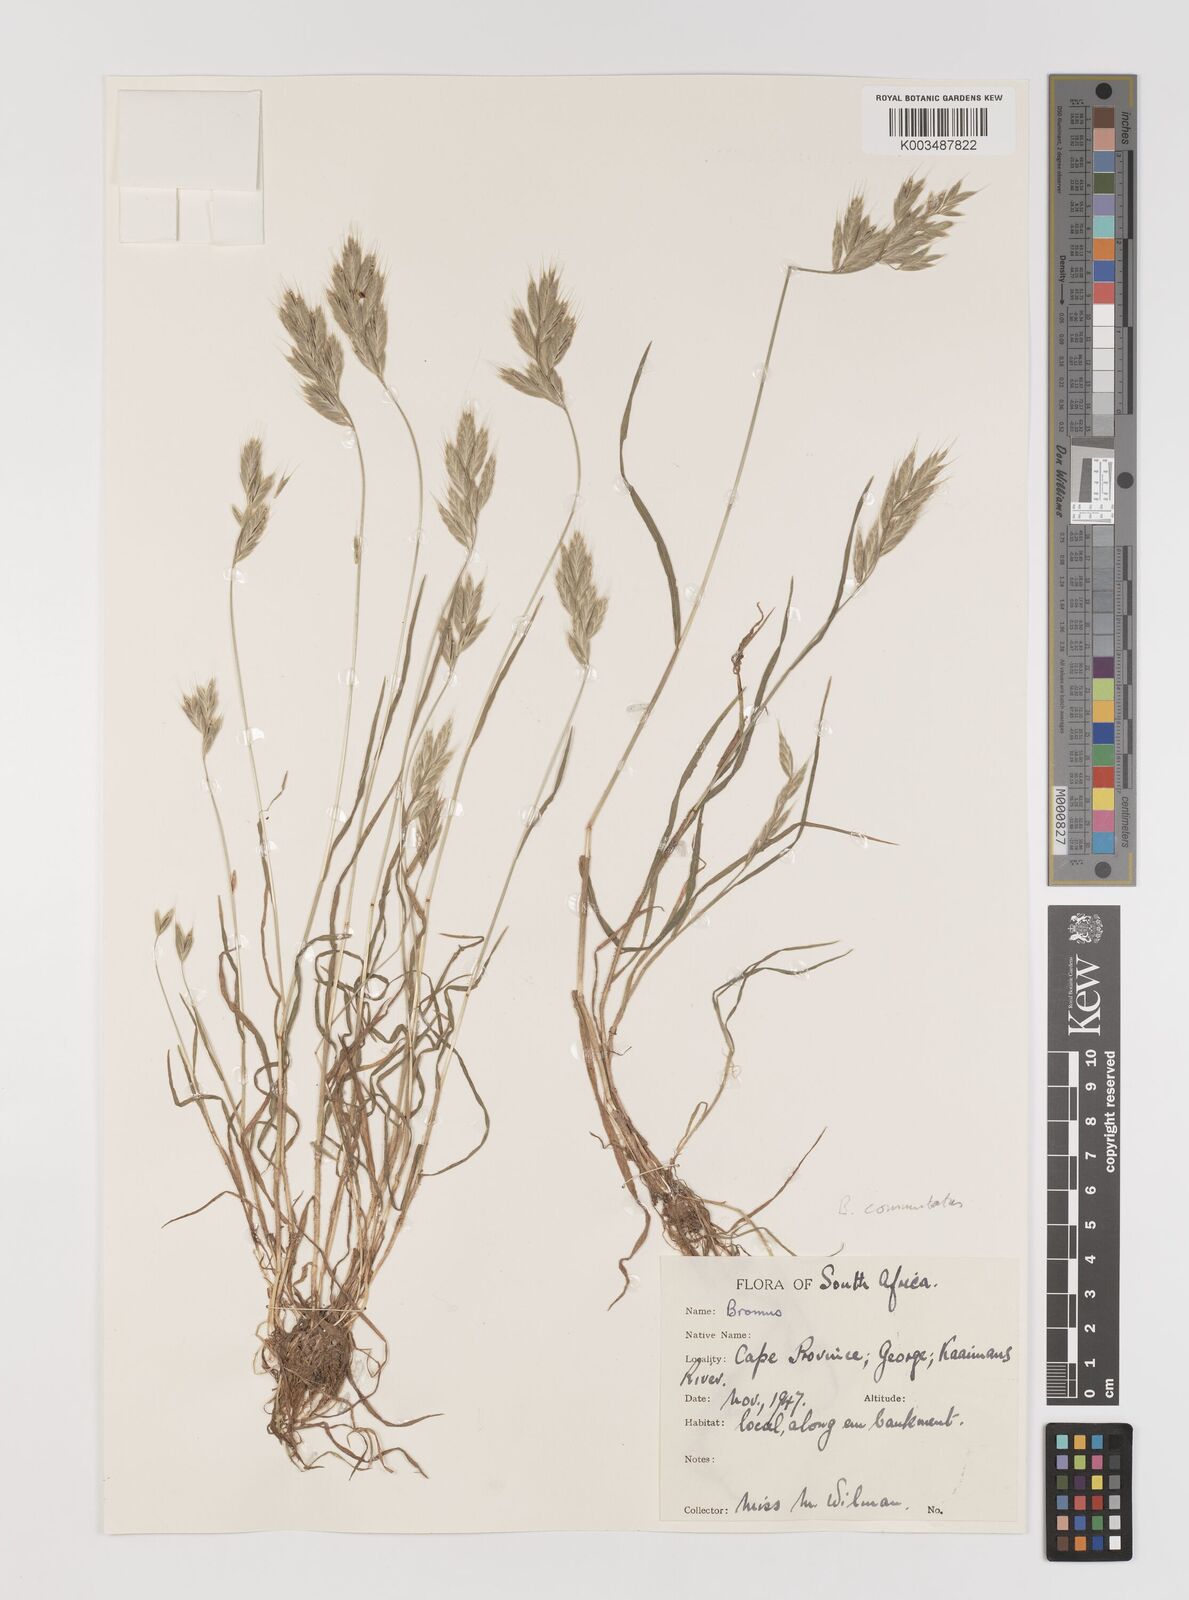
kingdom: Plantae
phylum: Tracheophyta
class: Liliopsida
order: Poales
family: Poaceae
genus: Bromus
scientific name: Bromus
